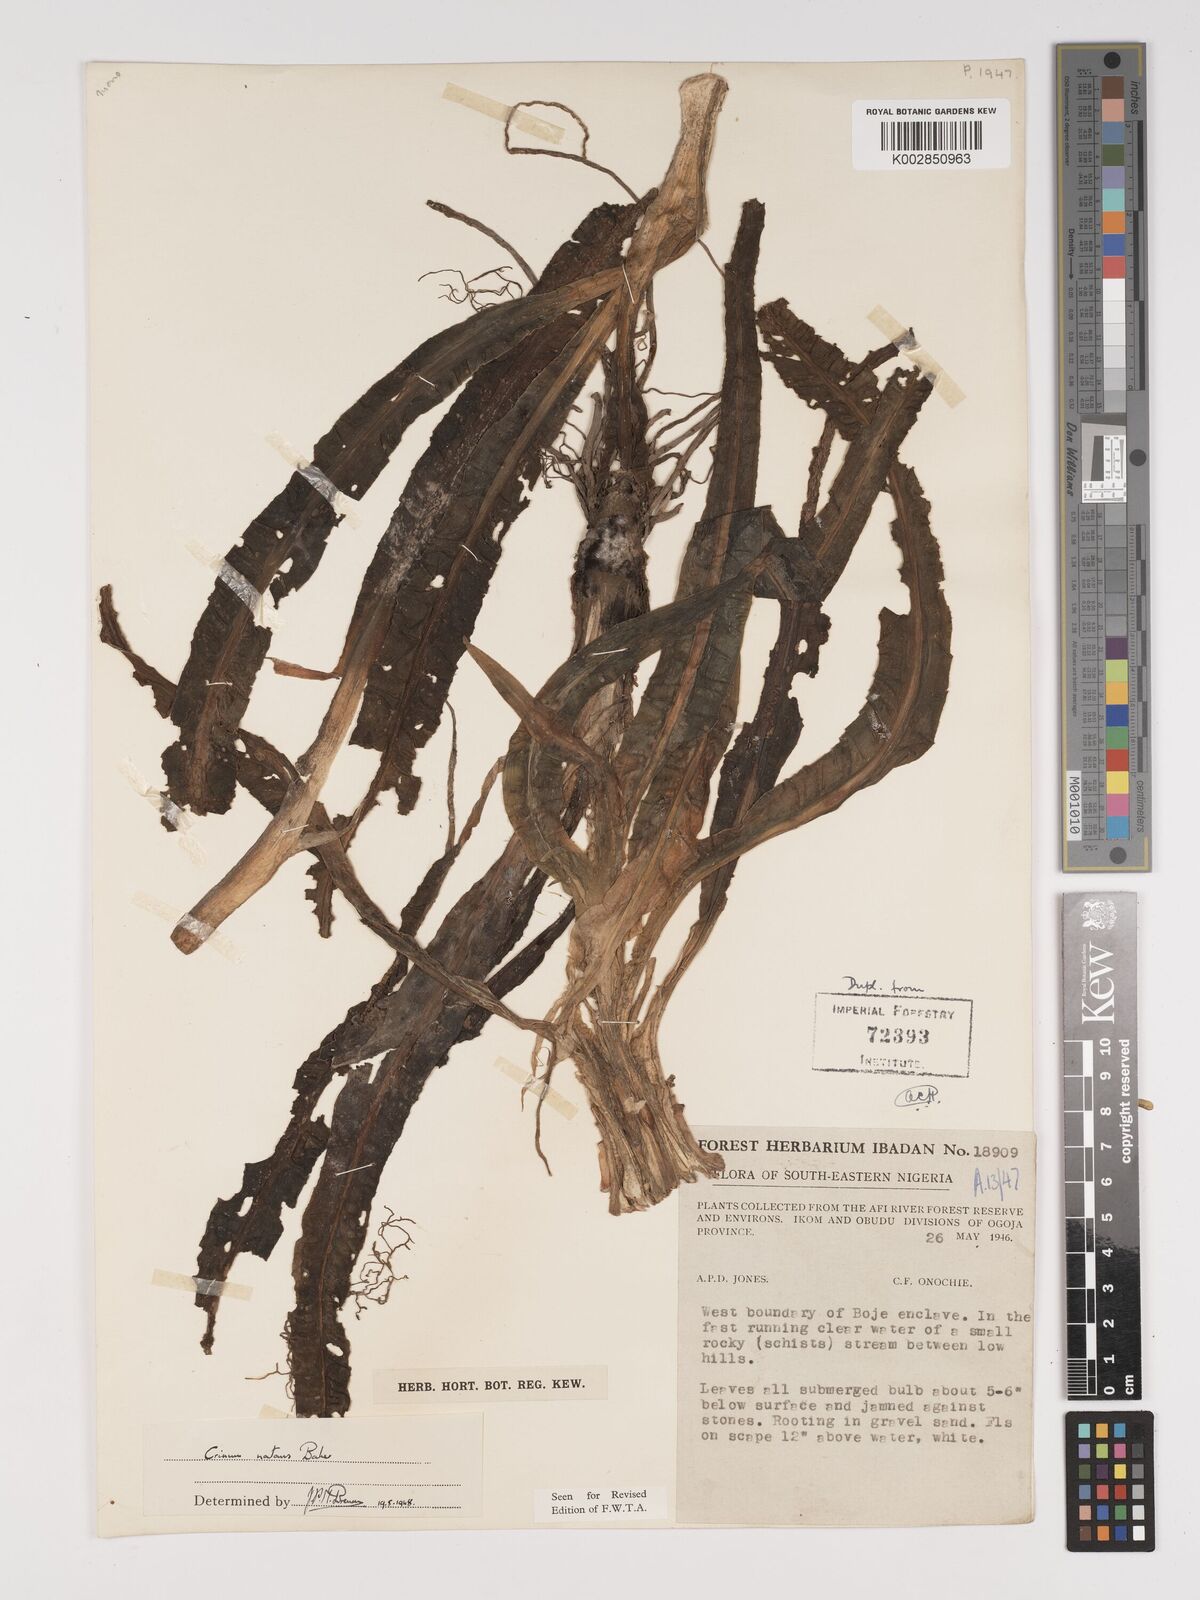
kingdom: Plantae
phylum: Tracheophyta
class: Liliopsida
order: Asparagales
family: Amaryllidaceae
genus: Crinum
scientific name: Crinum natans
